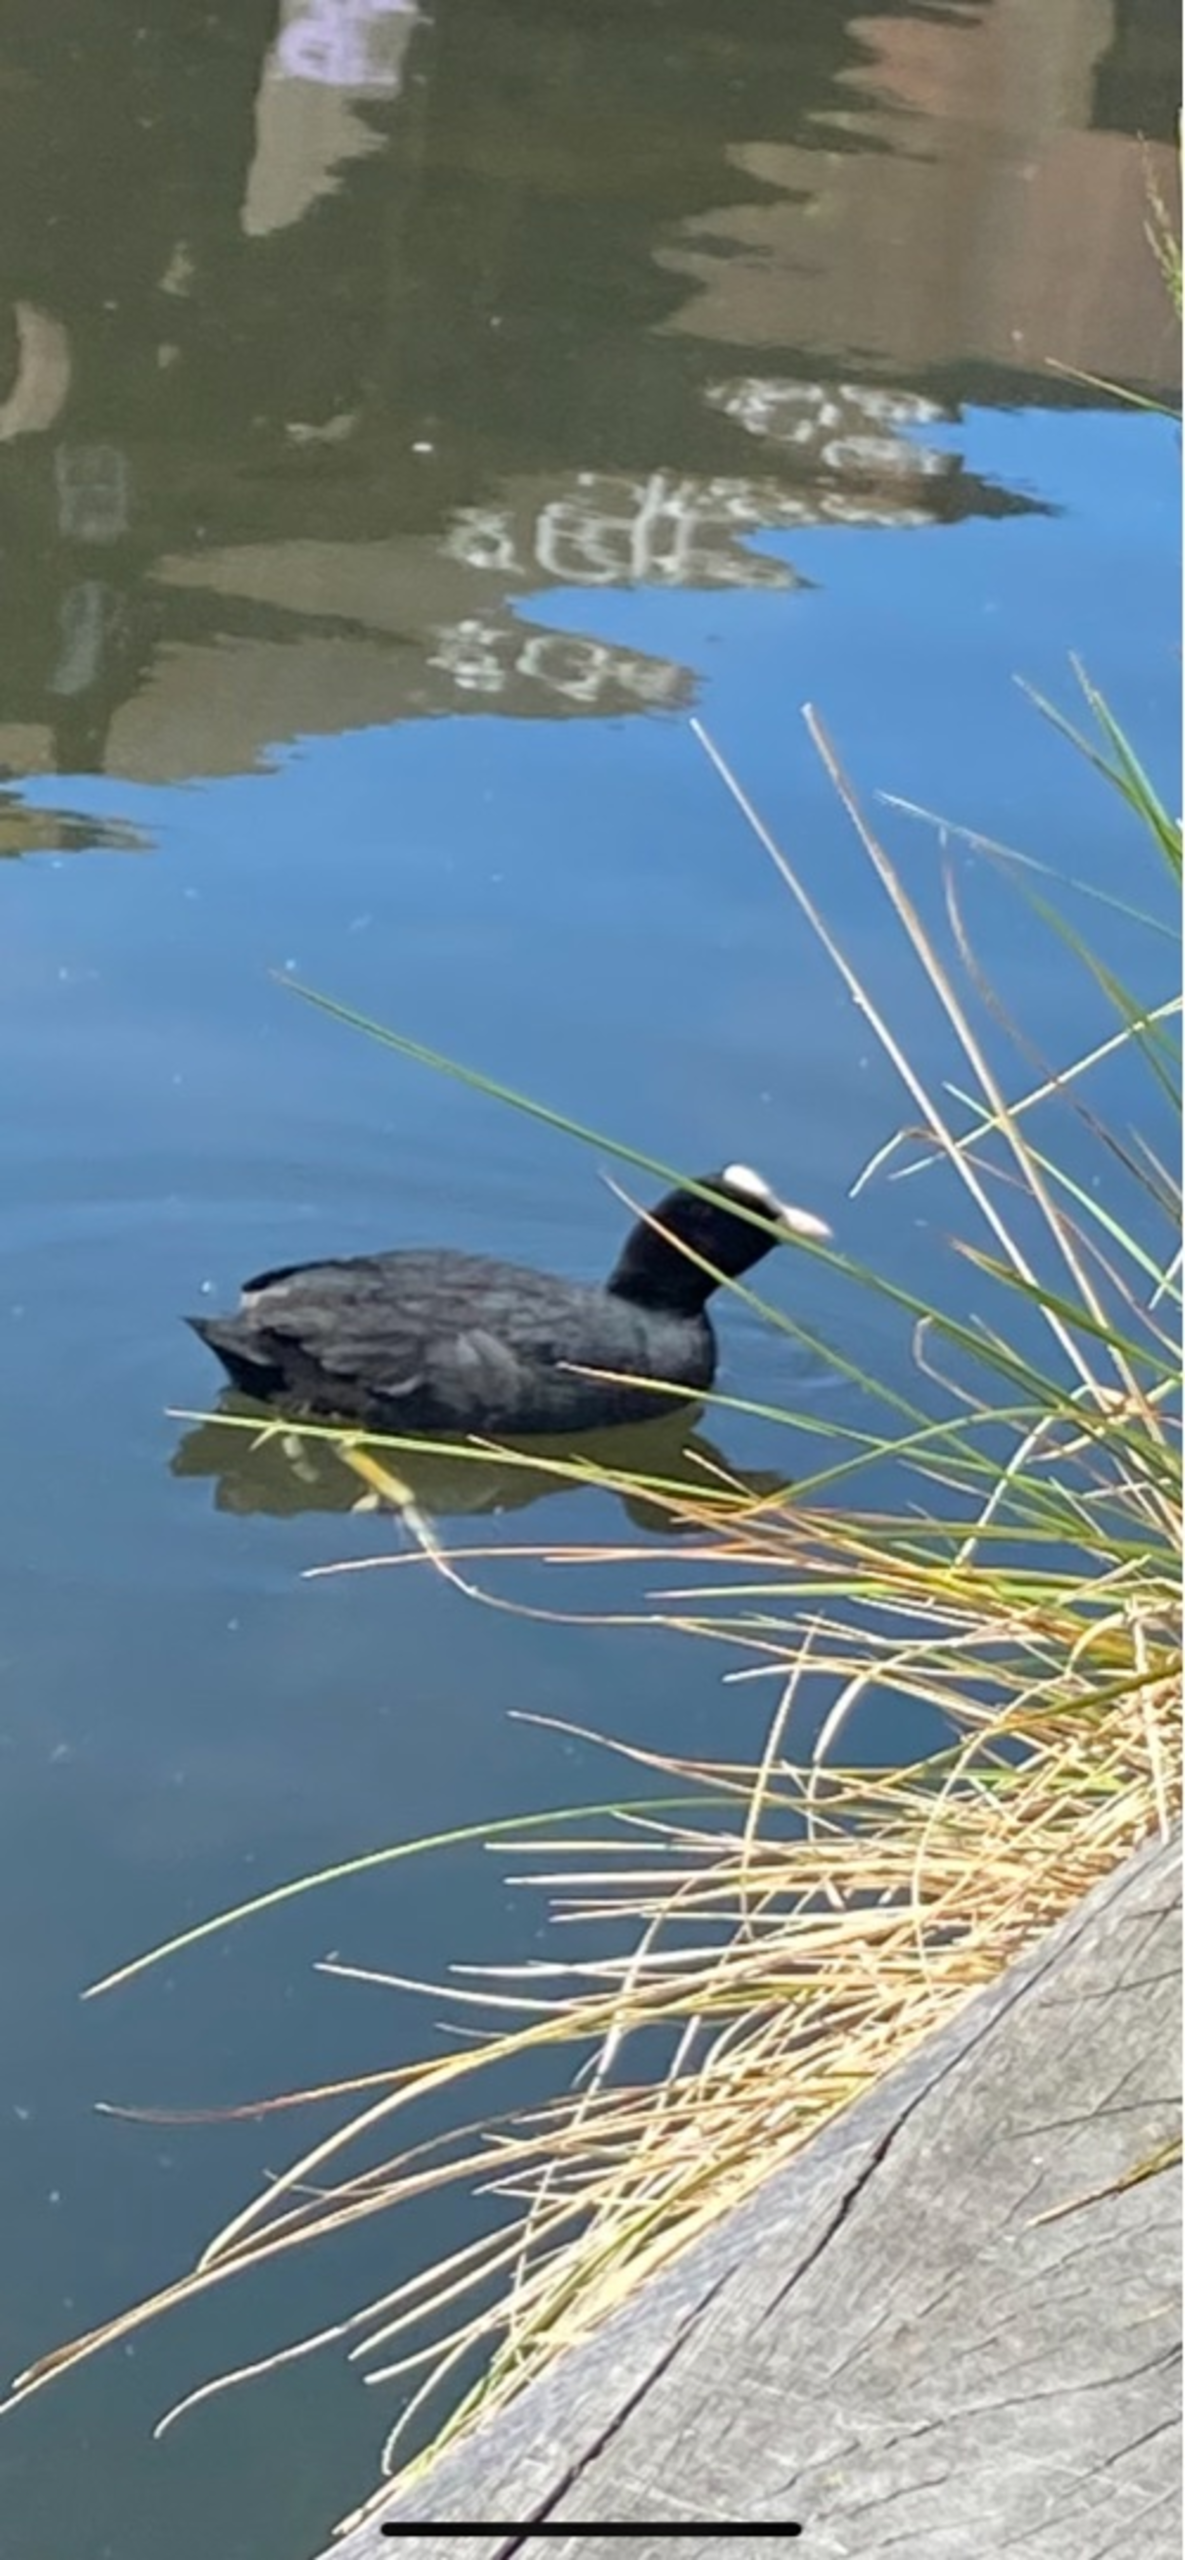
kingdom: Animalia
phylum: Chordata
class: Aves
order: Gruiformes
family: Rallidae
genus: Fulica
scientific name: Fulica atra
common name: Blishøne
